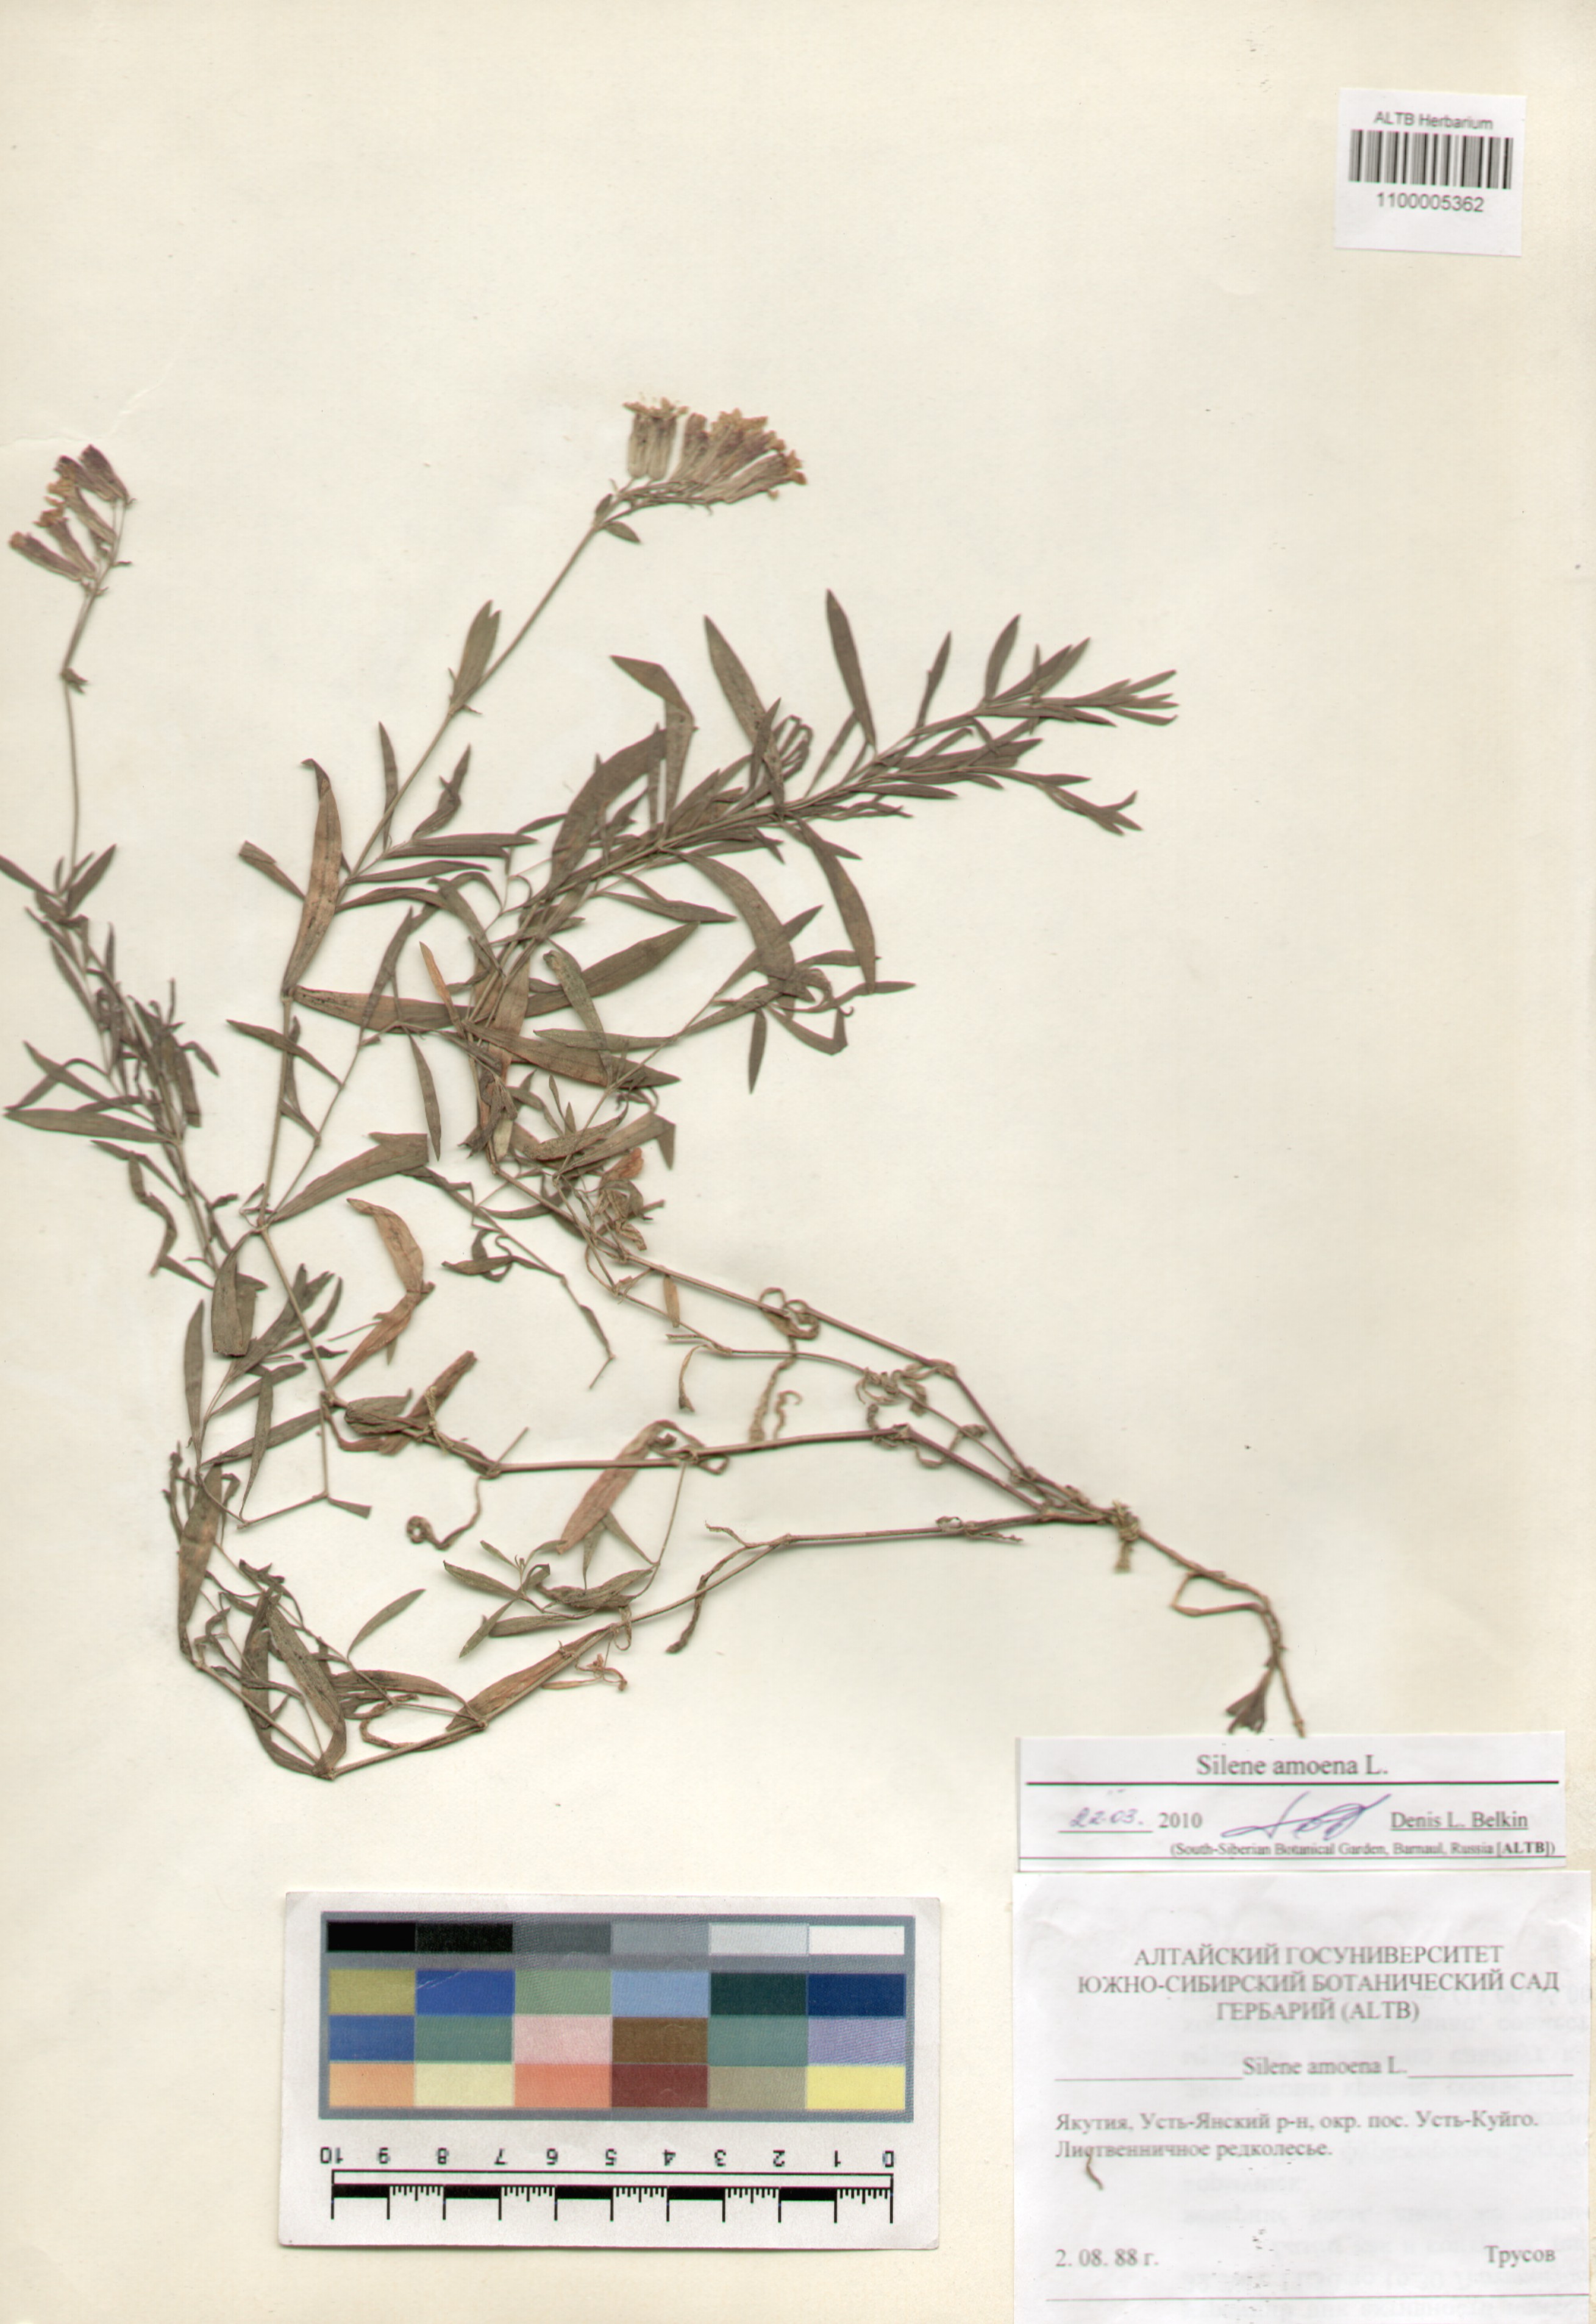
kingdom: Plantae
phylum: Tracheophyta
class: Magnoliopsida
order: Caryophyllales
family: Caryophyllaceae
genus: Silene
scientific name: Silene amoena
